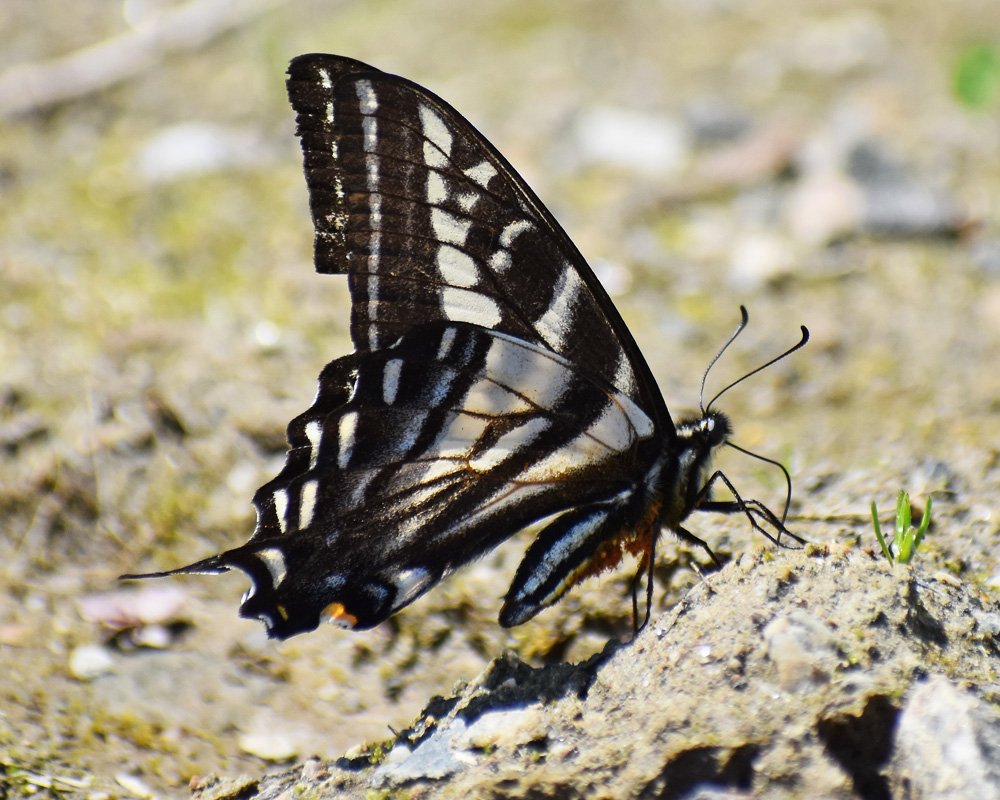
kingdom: Animalia
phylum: Arthropoda
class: Insecta
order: Lepidoptera
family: Papilionidae
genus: Pterourus
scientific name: Pterourus eurymedon
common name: Pale Swallowtail
